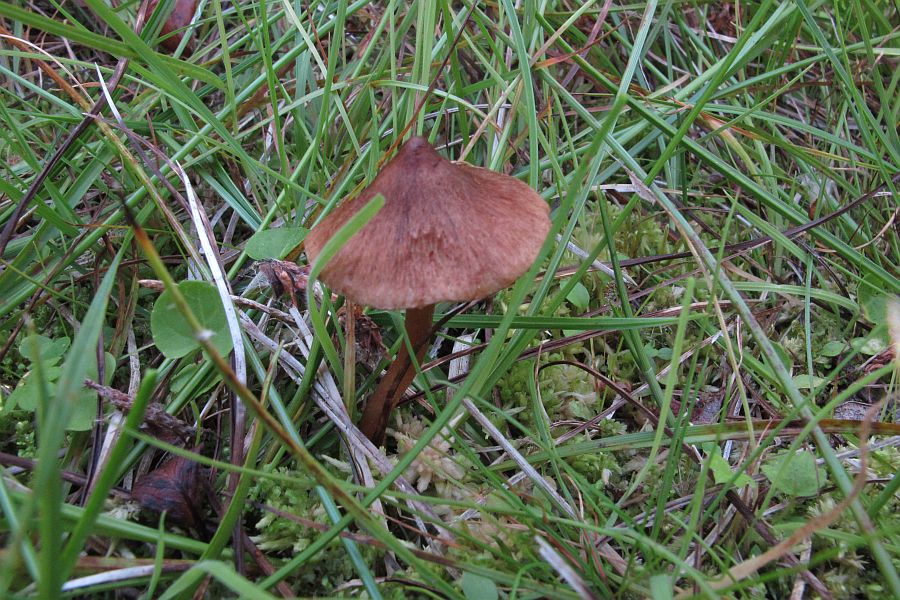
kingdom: Fungi
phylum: Basidiomycota
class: Agaricomycetes
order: Agaricales
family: Inocybaceae
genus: Inocybe
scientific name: Inocybe acuta
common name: papil-trævlhat
